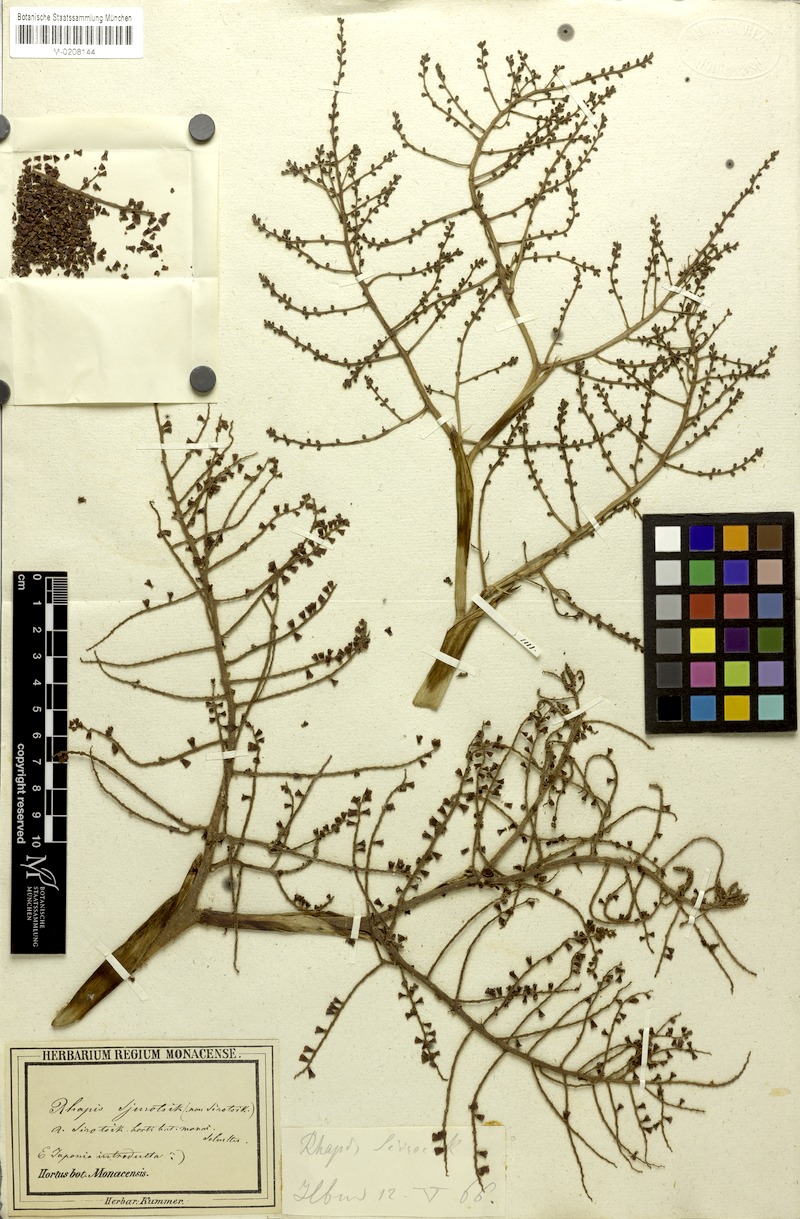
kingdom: Plantae
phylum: Tracheophyta
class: Liliopsida
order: Arecales
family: Arecaceae
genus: Rhapis
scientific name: Rhapis humilis
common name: Reed rhapis
